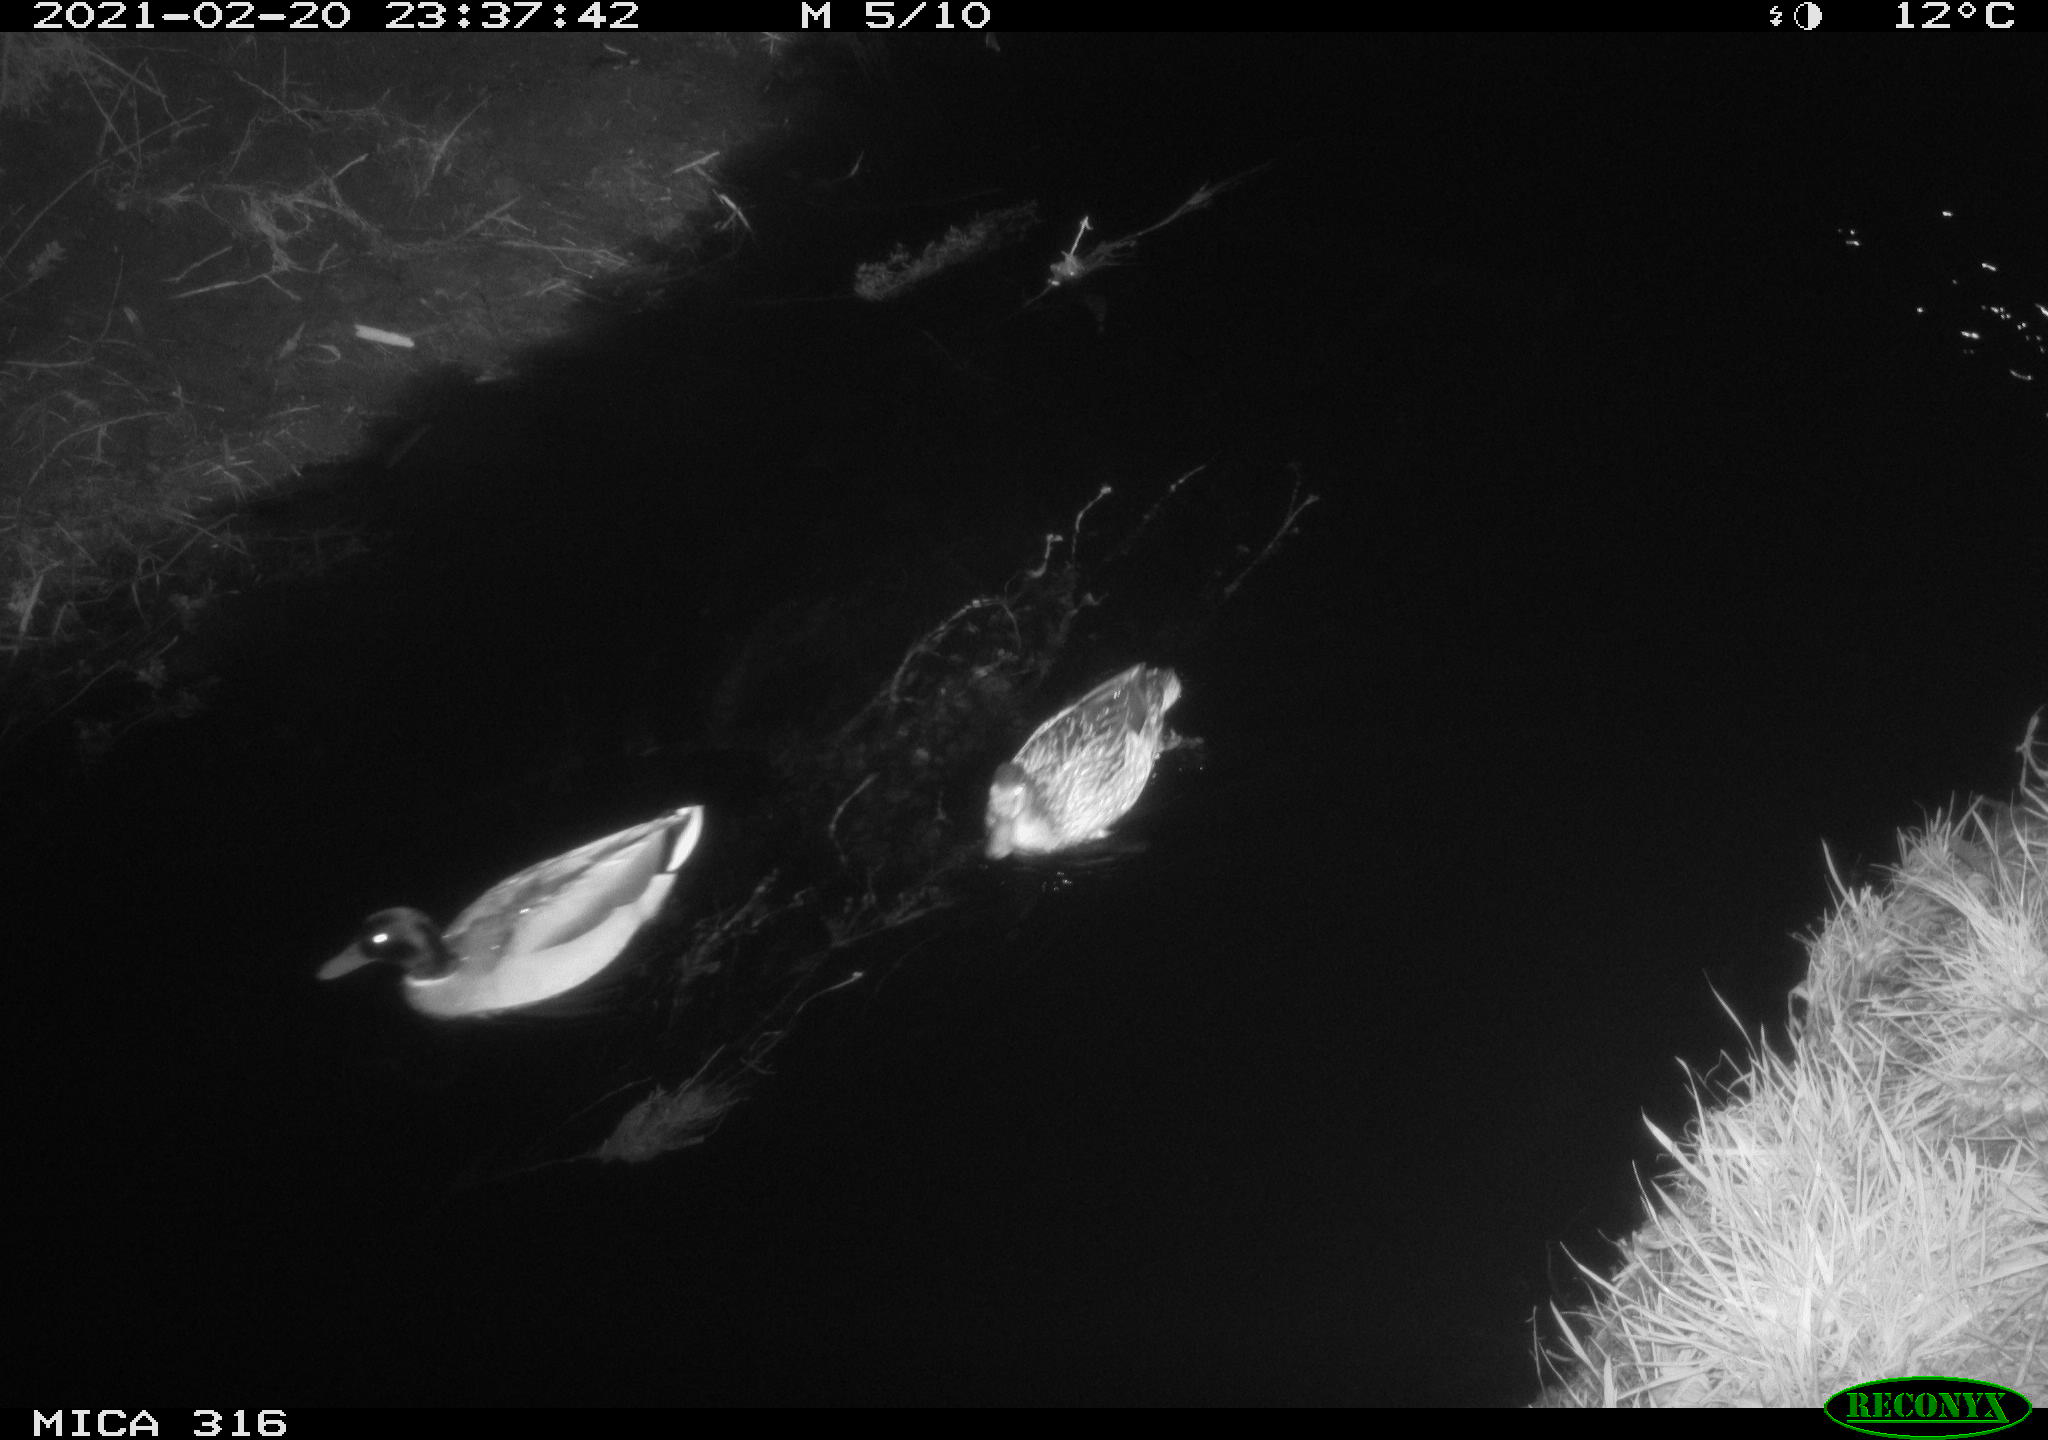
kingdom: Animalia
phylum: Chordata
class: Aves
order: Anseriformes
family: Anatidae
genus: Anas
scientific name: Anas platyrhynchos
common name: Mallard
